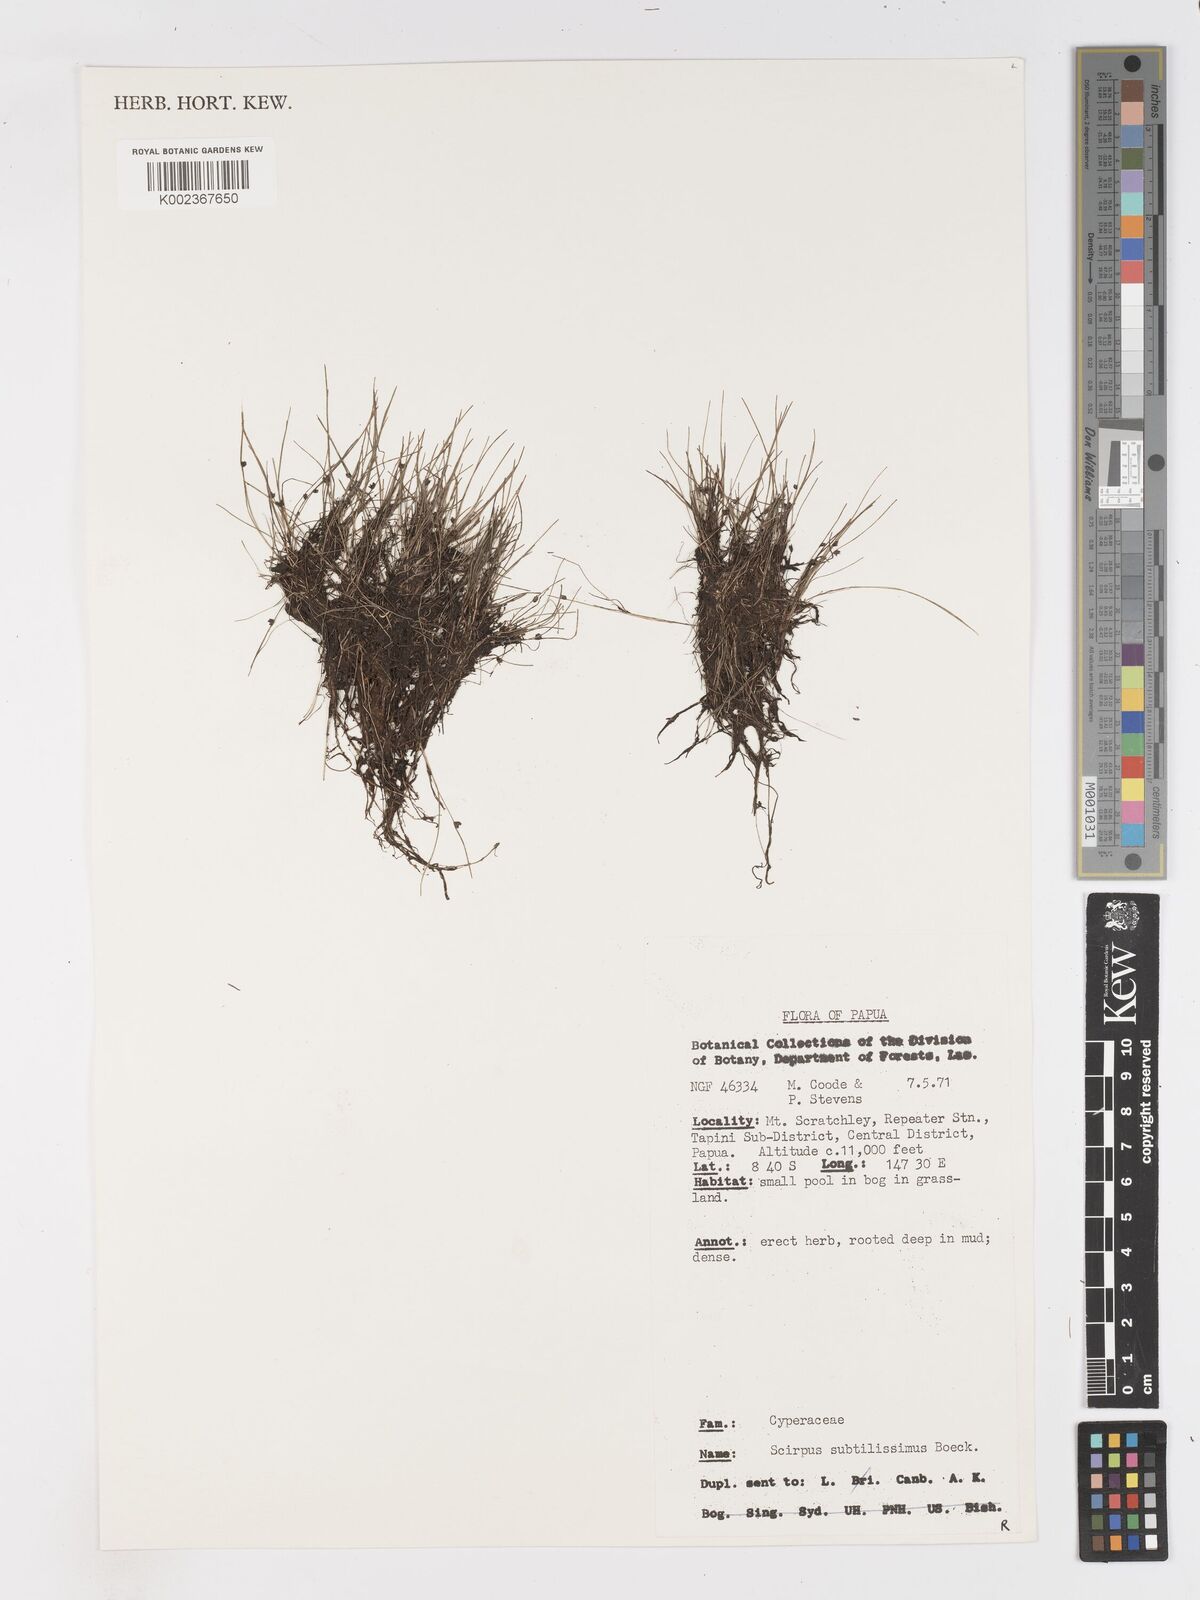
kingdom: Plantae
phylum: Tracheophyta
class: Liliopsida
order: Poales
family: Cyperaceae
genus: Isolepis
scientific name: Isolepis subtilissima
